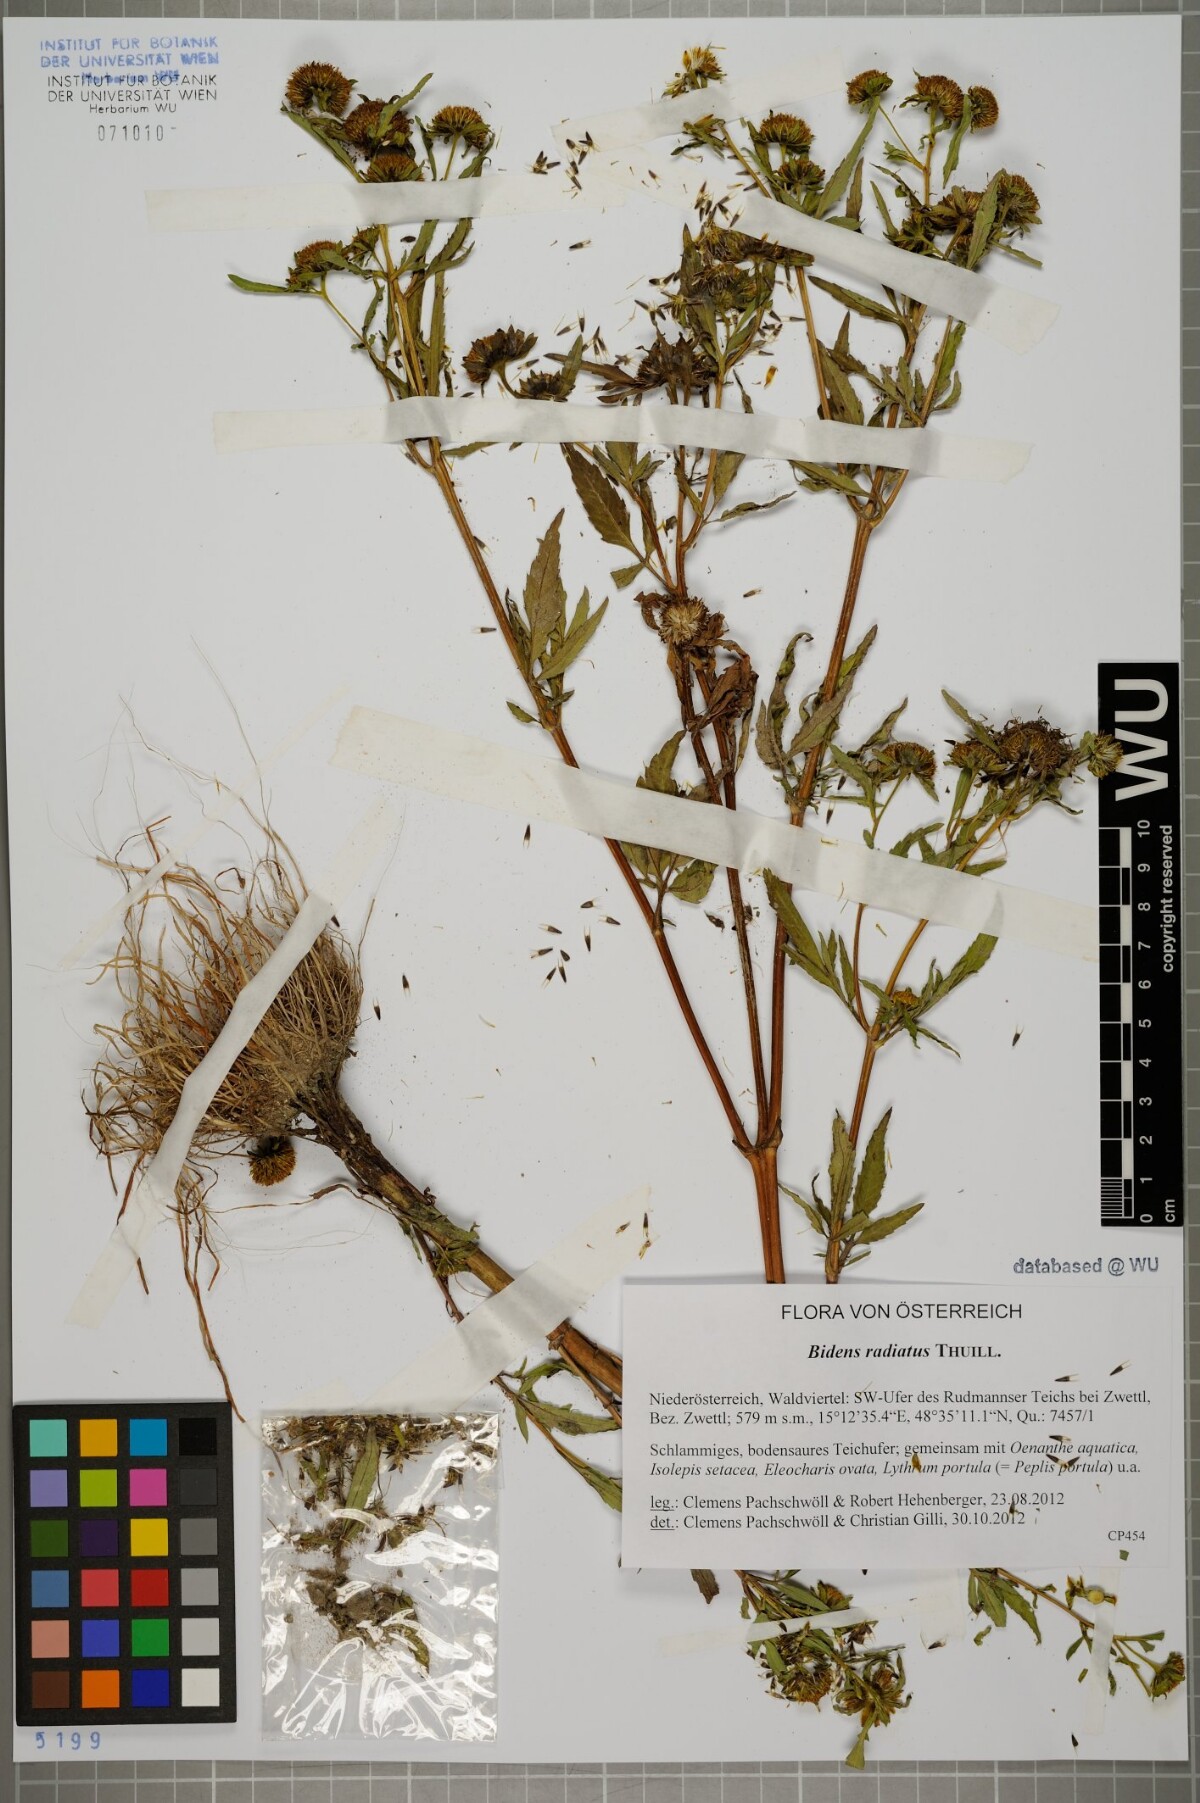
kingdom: Plantae
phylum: Tracheophyta
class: Magnoliopsida
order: Asterales
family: Asteraceae
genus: Bidens
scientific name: Bidens radiata
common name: Radiating bur-marigold
